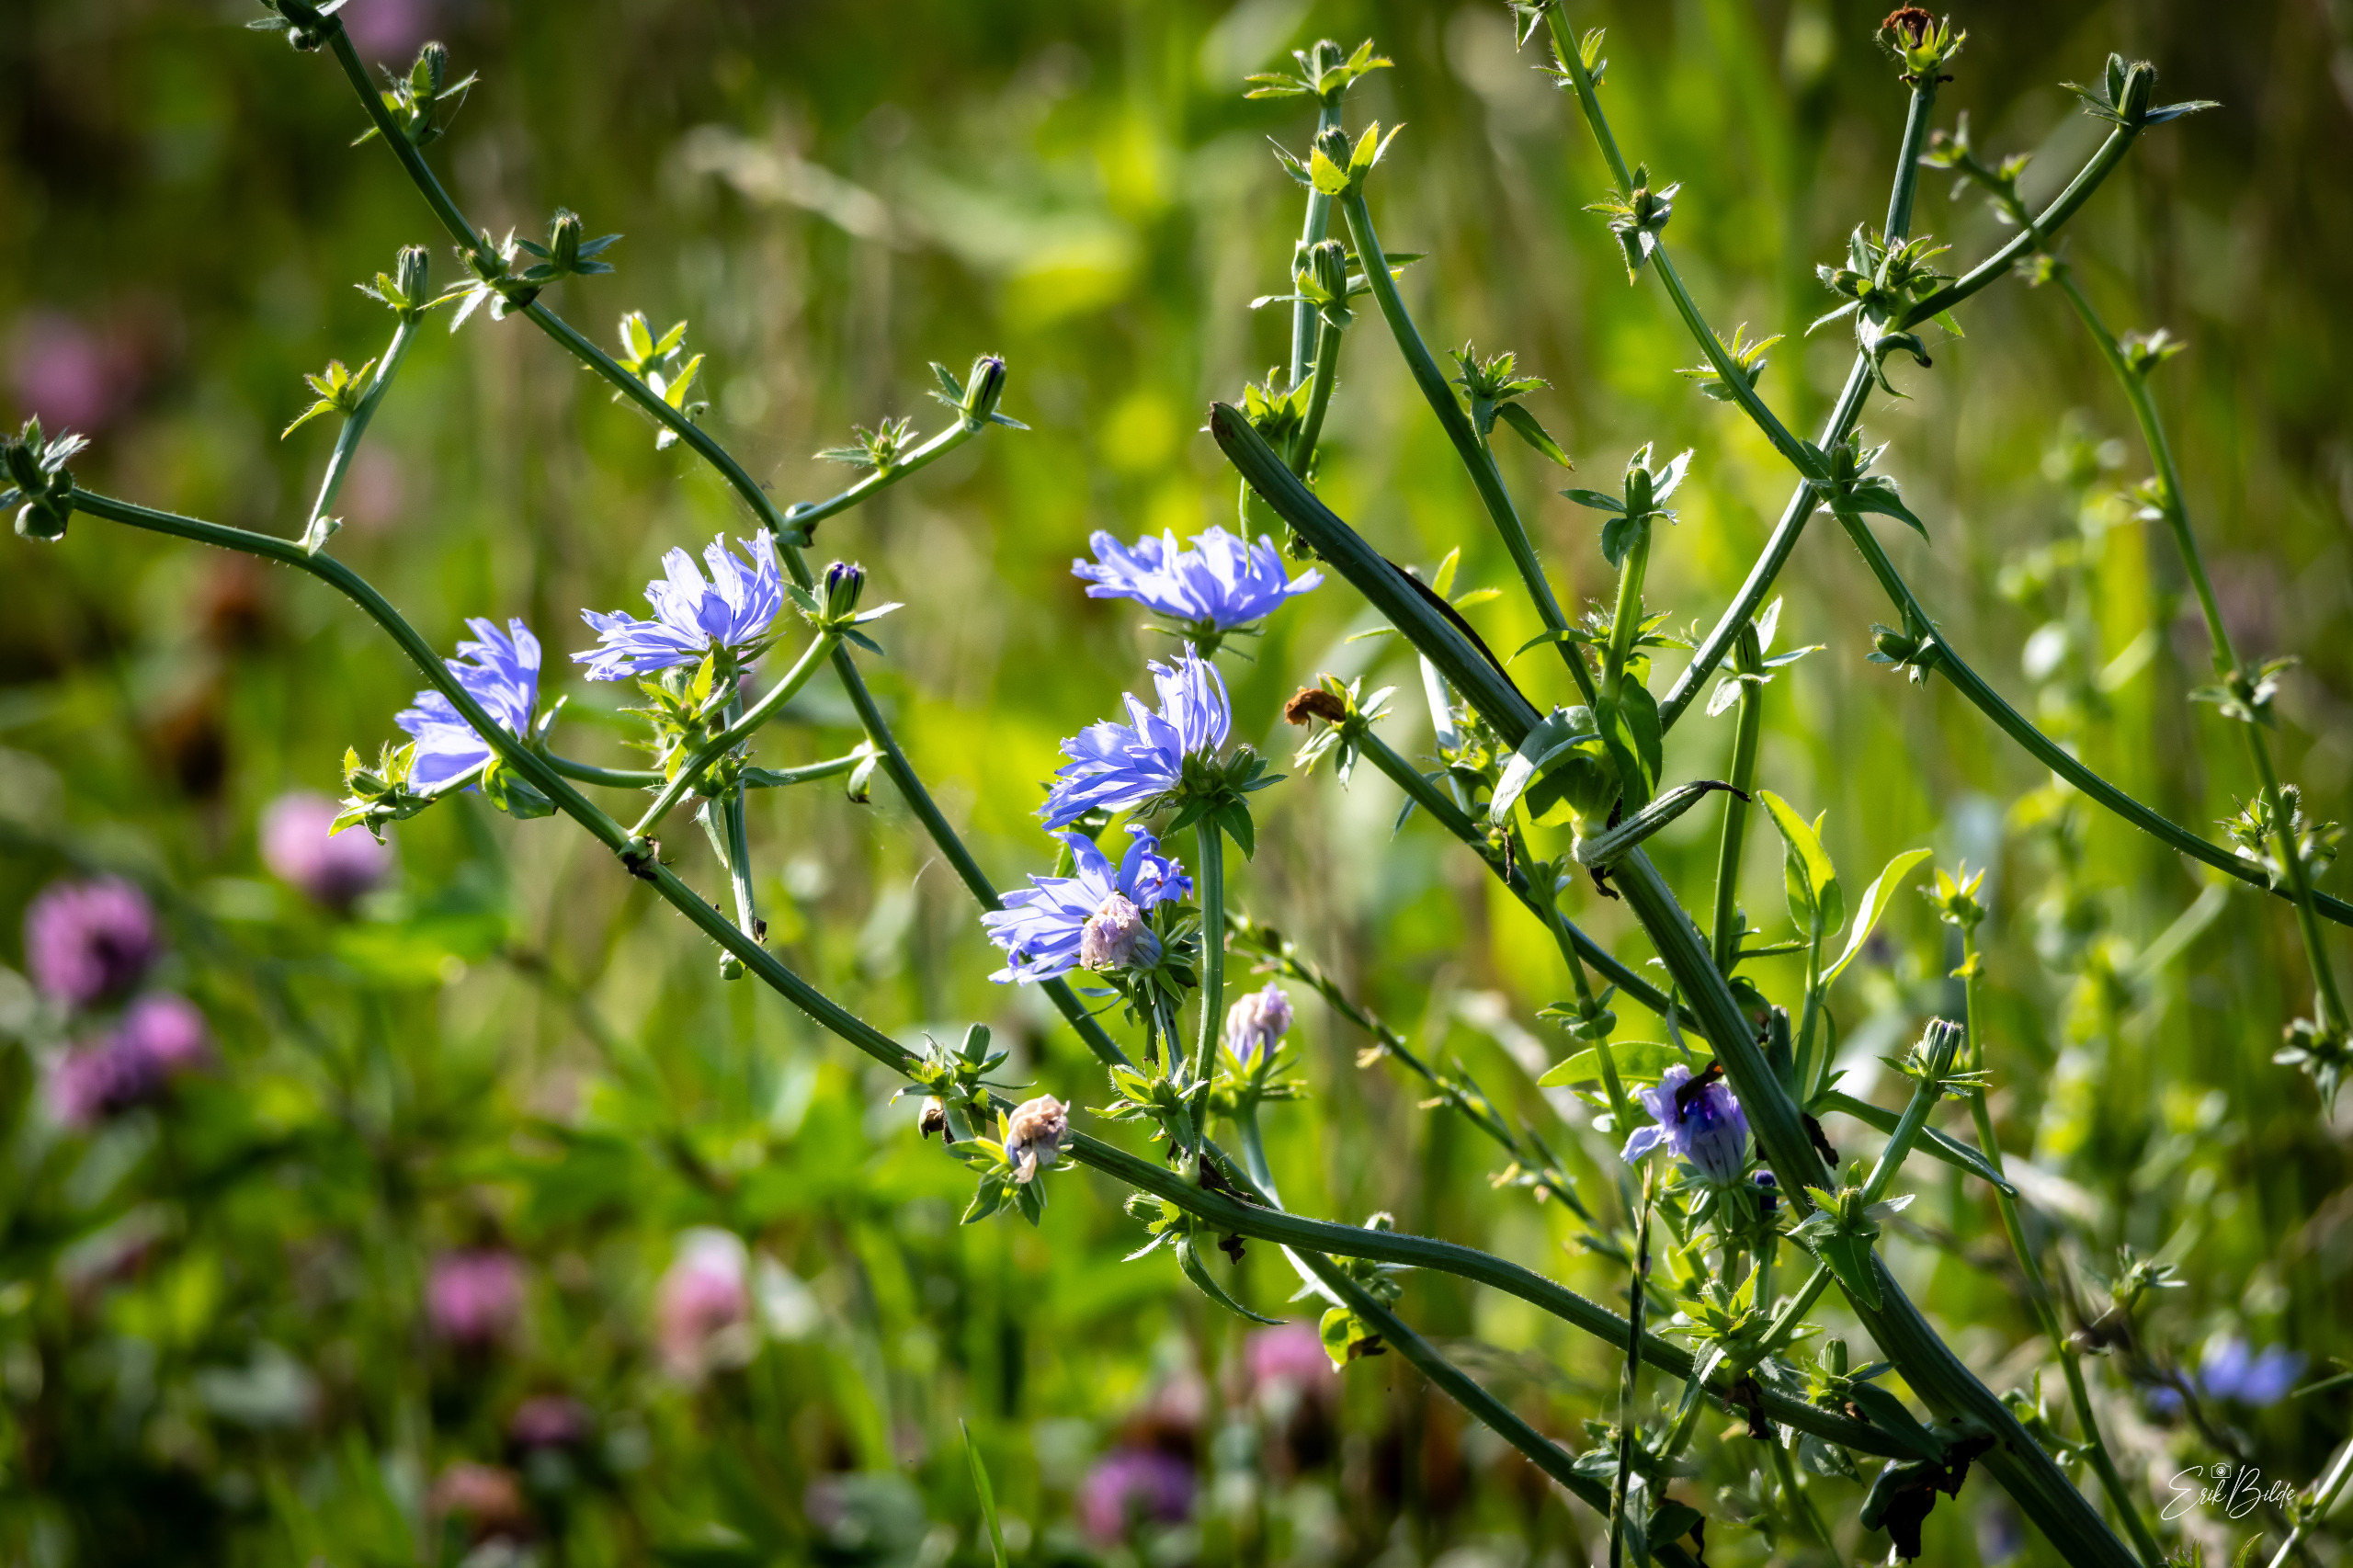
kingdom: Plantae
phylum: Tracheophyta
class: Magnoliopsida
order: Asterales
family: Asteraceae
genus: Cichorium
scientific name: Cichorium intybus
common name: Cikorie
